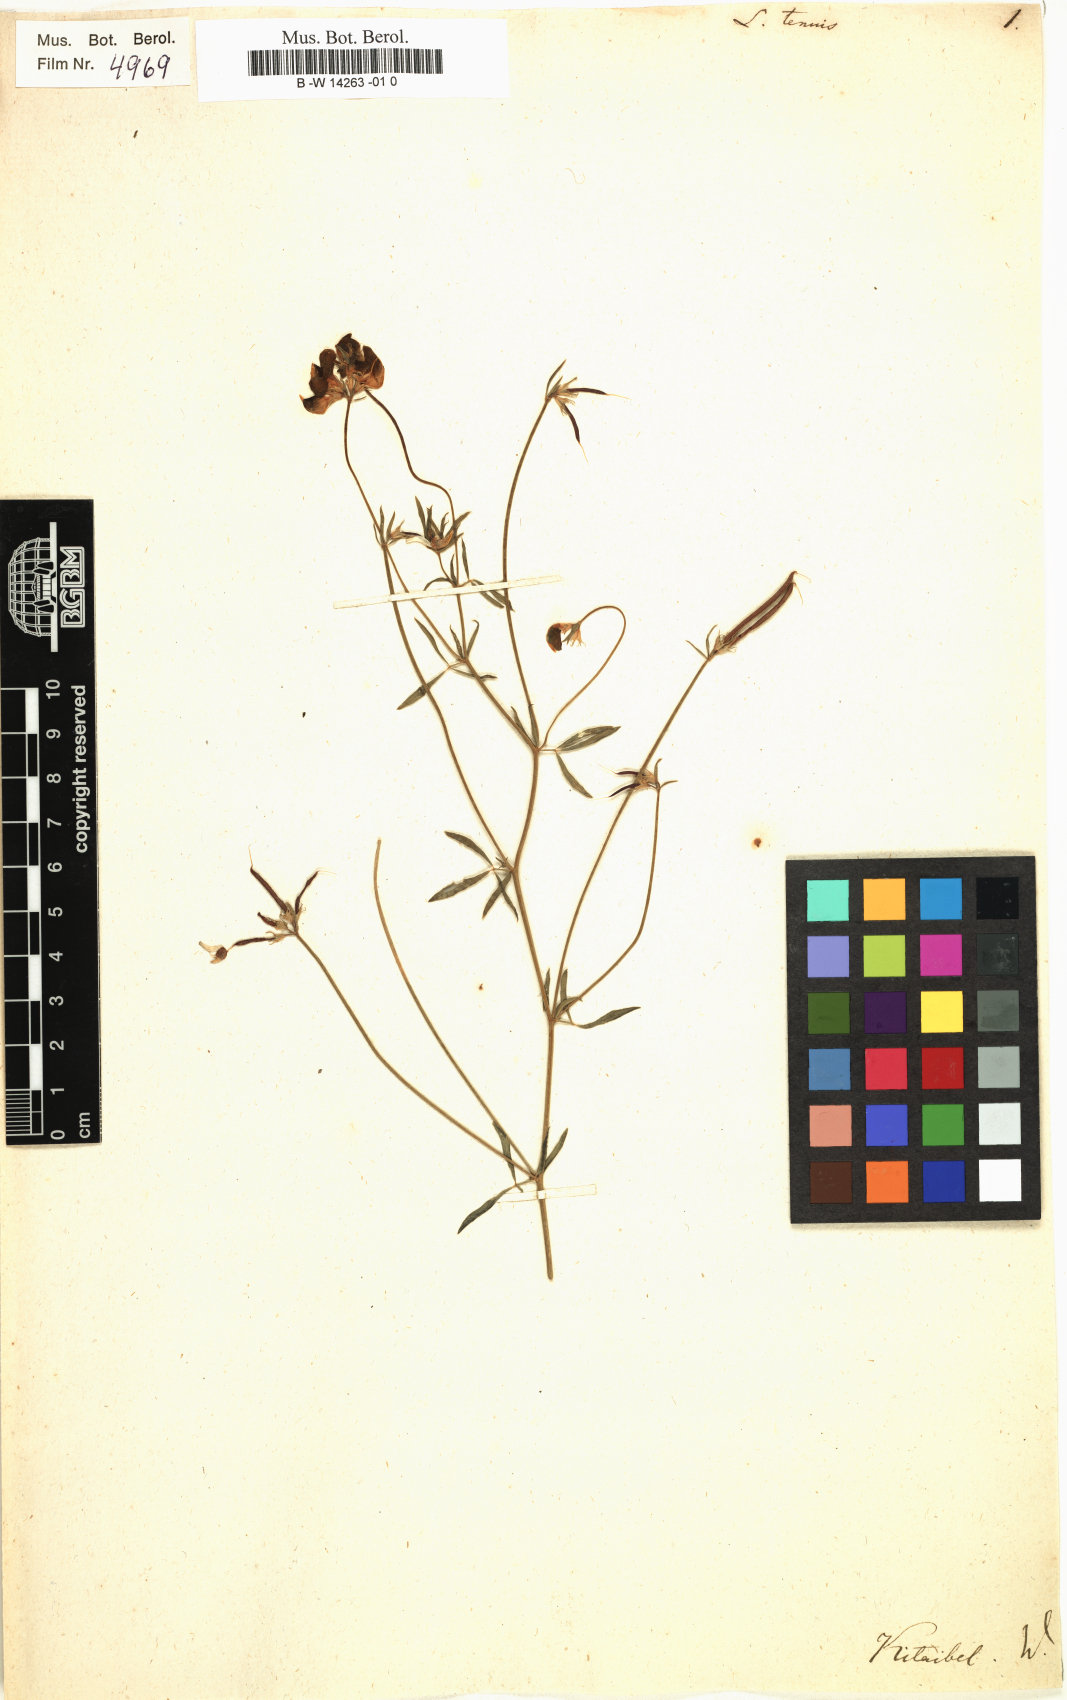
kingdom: Plantae
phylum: Tracheophyta
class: Magnoliopsida
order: Fabales
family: Fabaceae
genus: Lotus
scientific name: Lotus tenuis
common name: Narrow-leaved bird's-foot-trefoil
